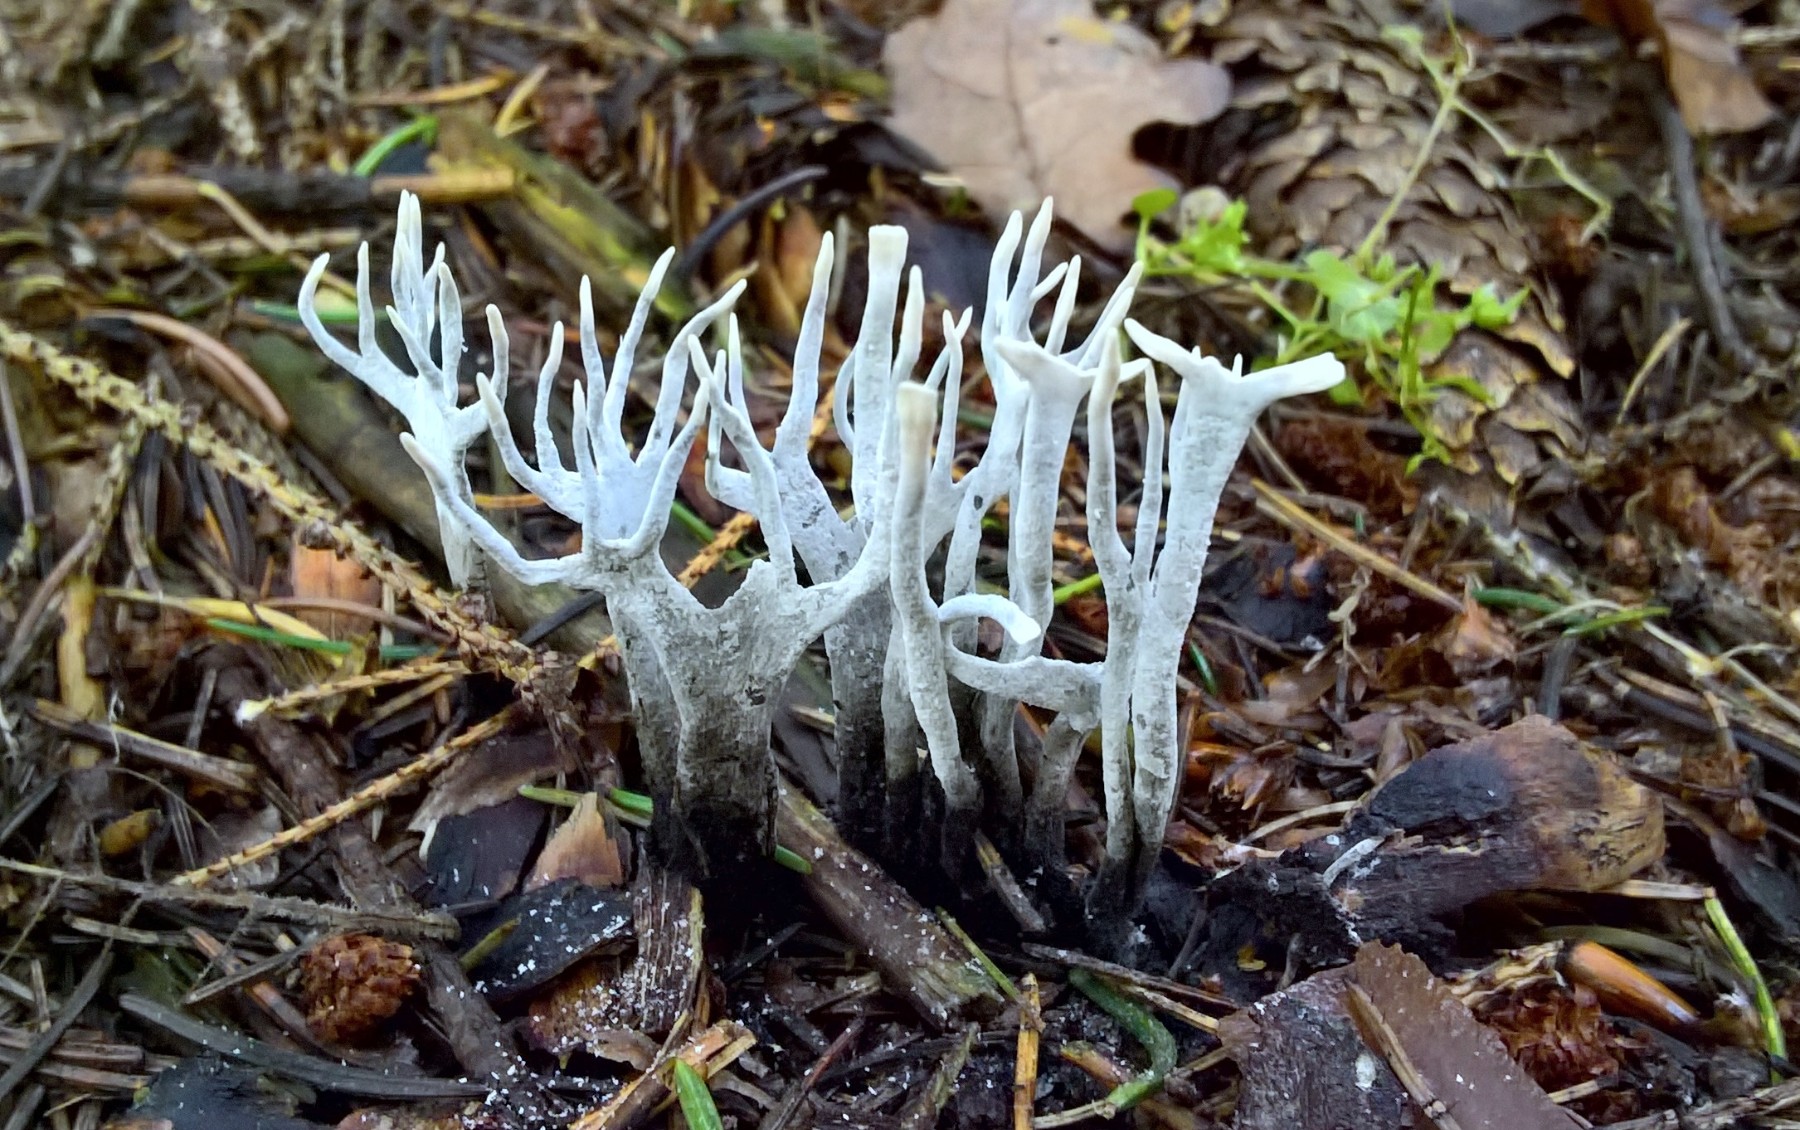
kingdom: Fungi
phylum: Ascomycota
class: Sordariomycetes
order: Xylariales
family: Xylariaceae
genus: Xylaria
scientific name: Xylaria hypoxylon
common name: grenet stødsvamp
